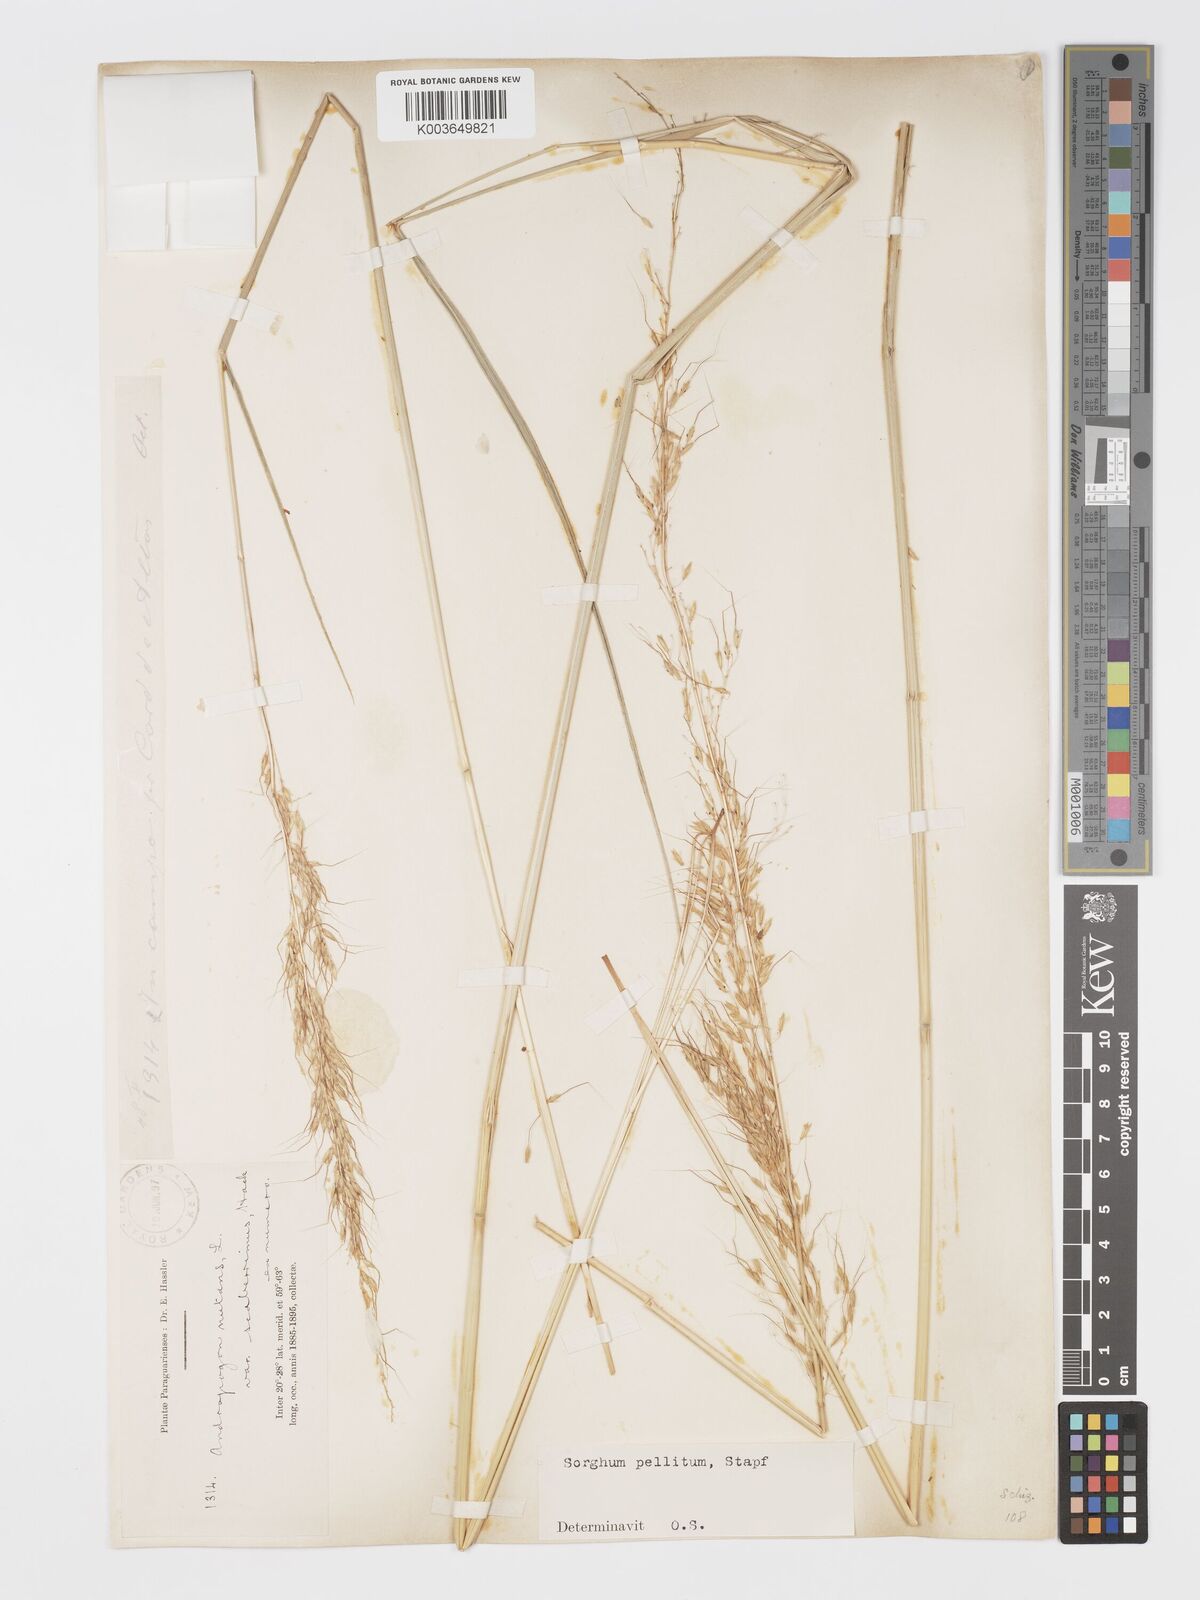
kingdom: Plantae
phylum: Tracheophyta
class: Liliopsida
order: Poales
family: Poaceae
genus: Sorghastrum
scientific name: Sorghastrum pellitum
